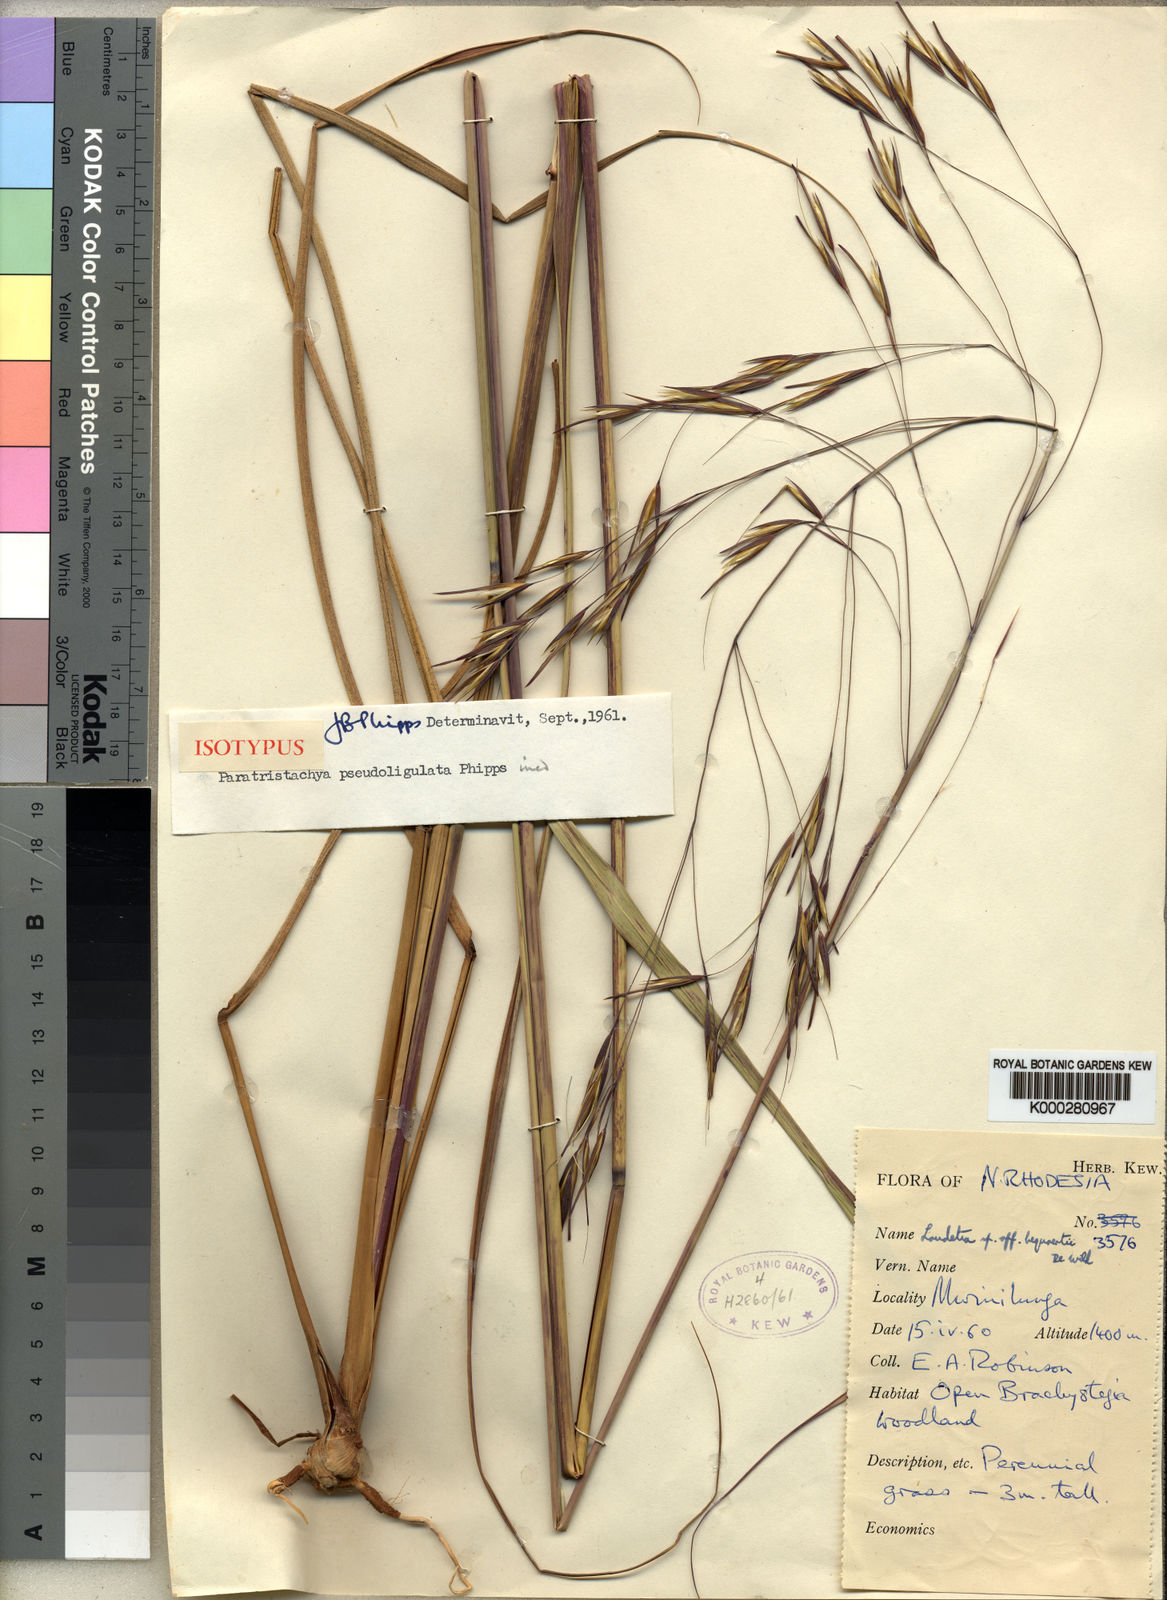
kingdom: Plantae
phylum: Tracheophyta
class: Liliopsida
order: Poales
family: Poaceae
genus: Tristachya
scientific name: Tristachya hubbardiana
